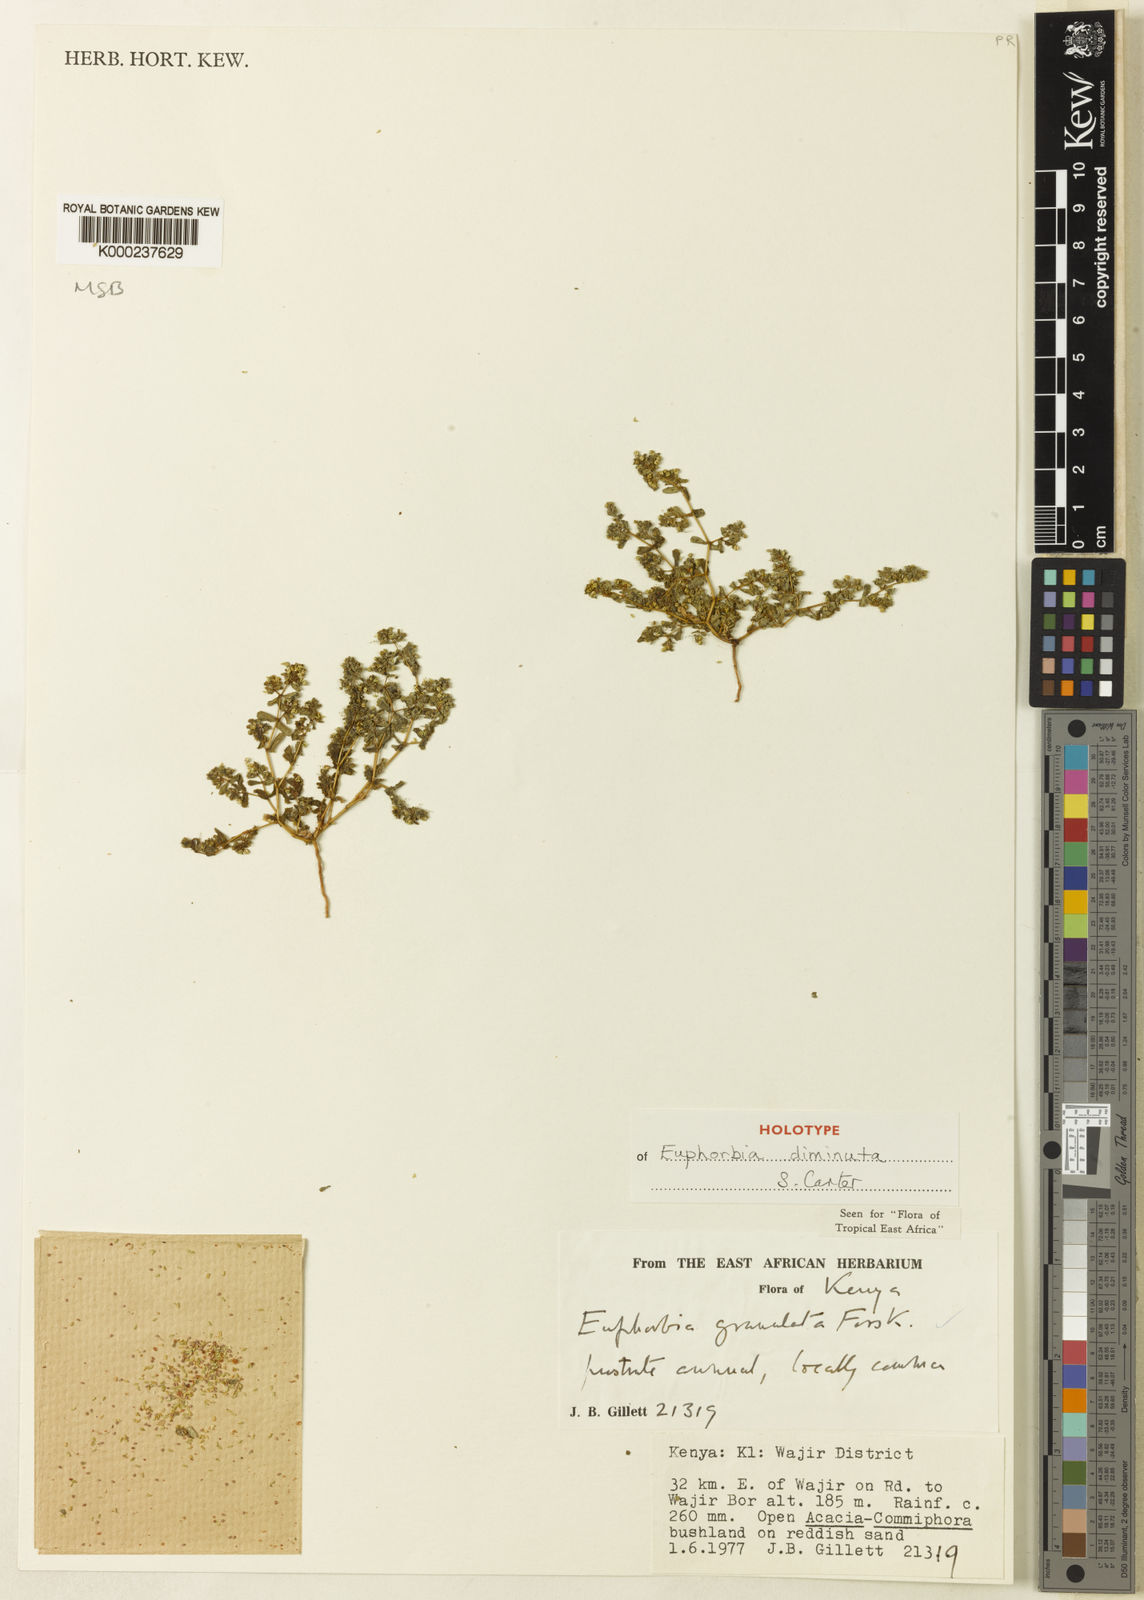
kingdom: Plantae
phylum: Tracheophyta
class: Magnoliopsida
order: Malpighiales
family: Euphorbiaceae
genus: Euphorbia
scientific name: Euphorbia diminuta
